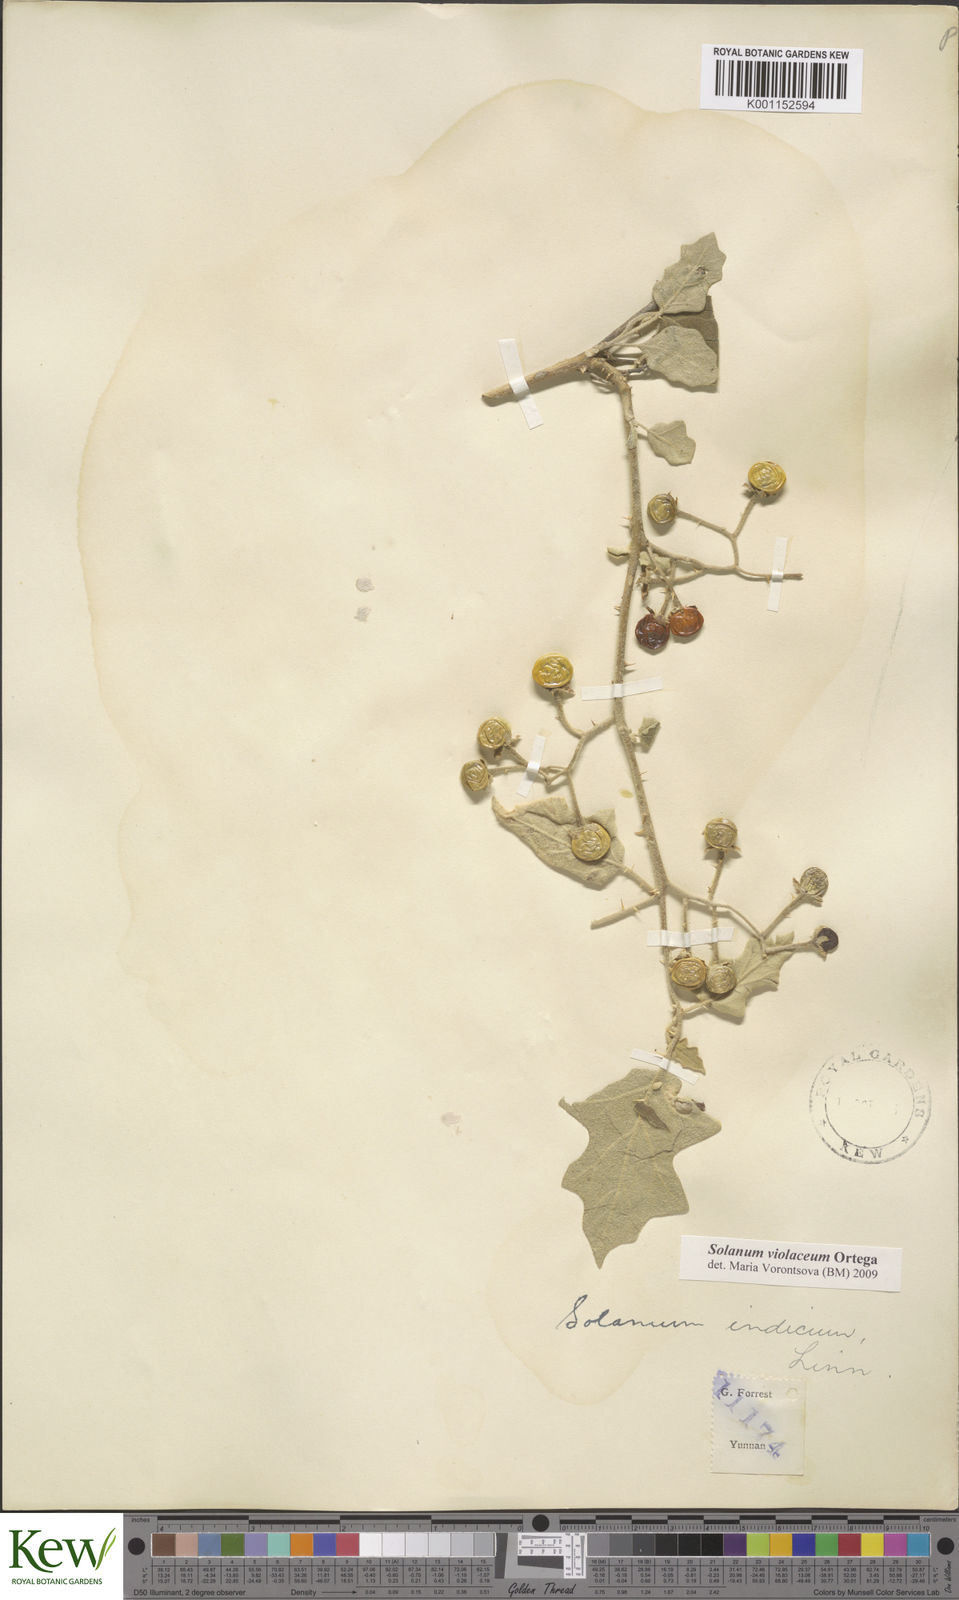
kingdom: Plantae
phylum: Tracheophyta
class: Magnoliopsida
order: Solanales
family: Solanaceae
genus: Solanum
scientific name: Solanum violaceum
